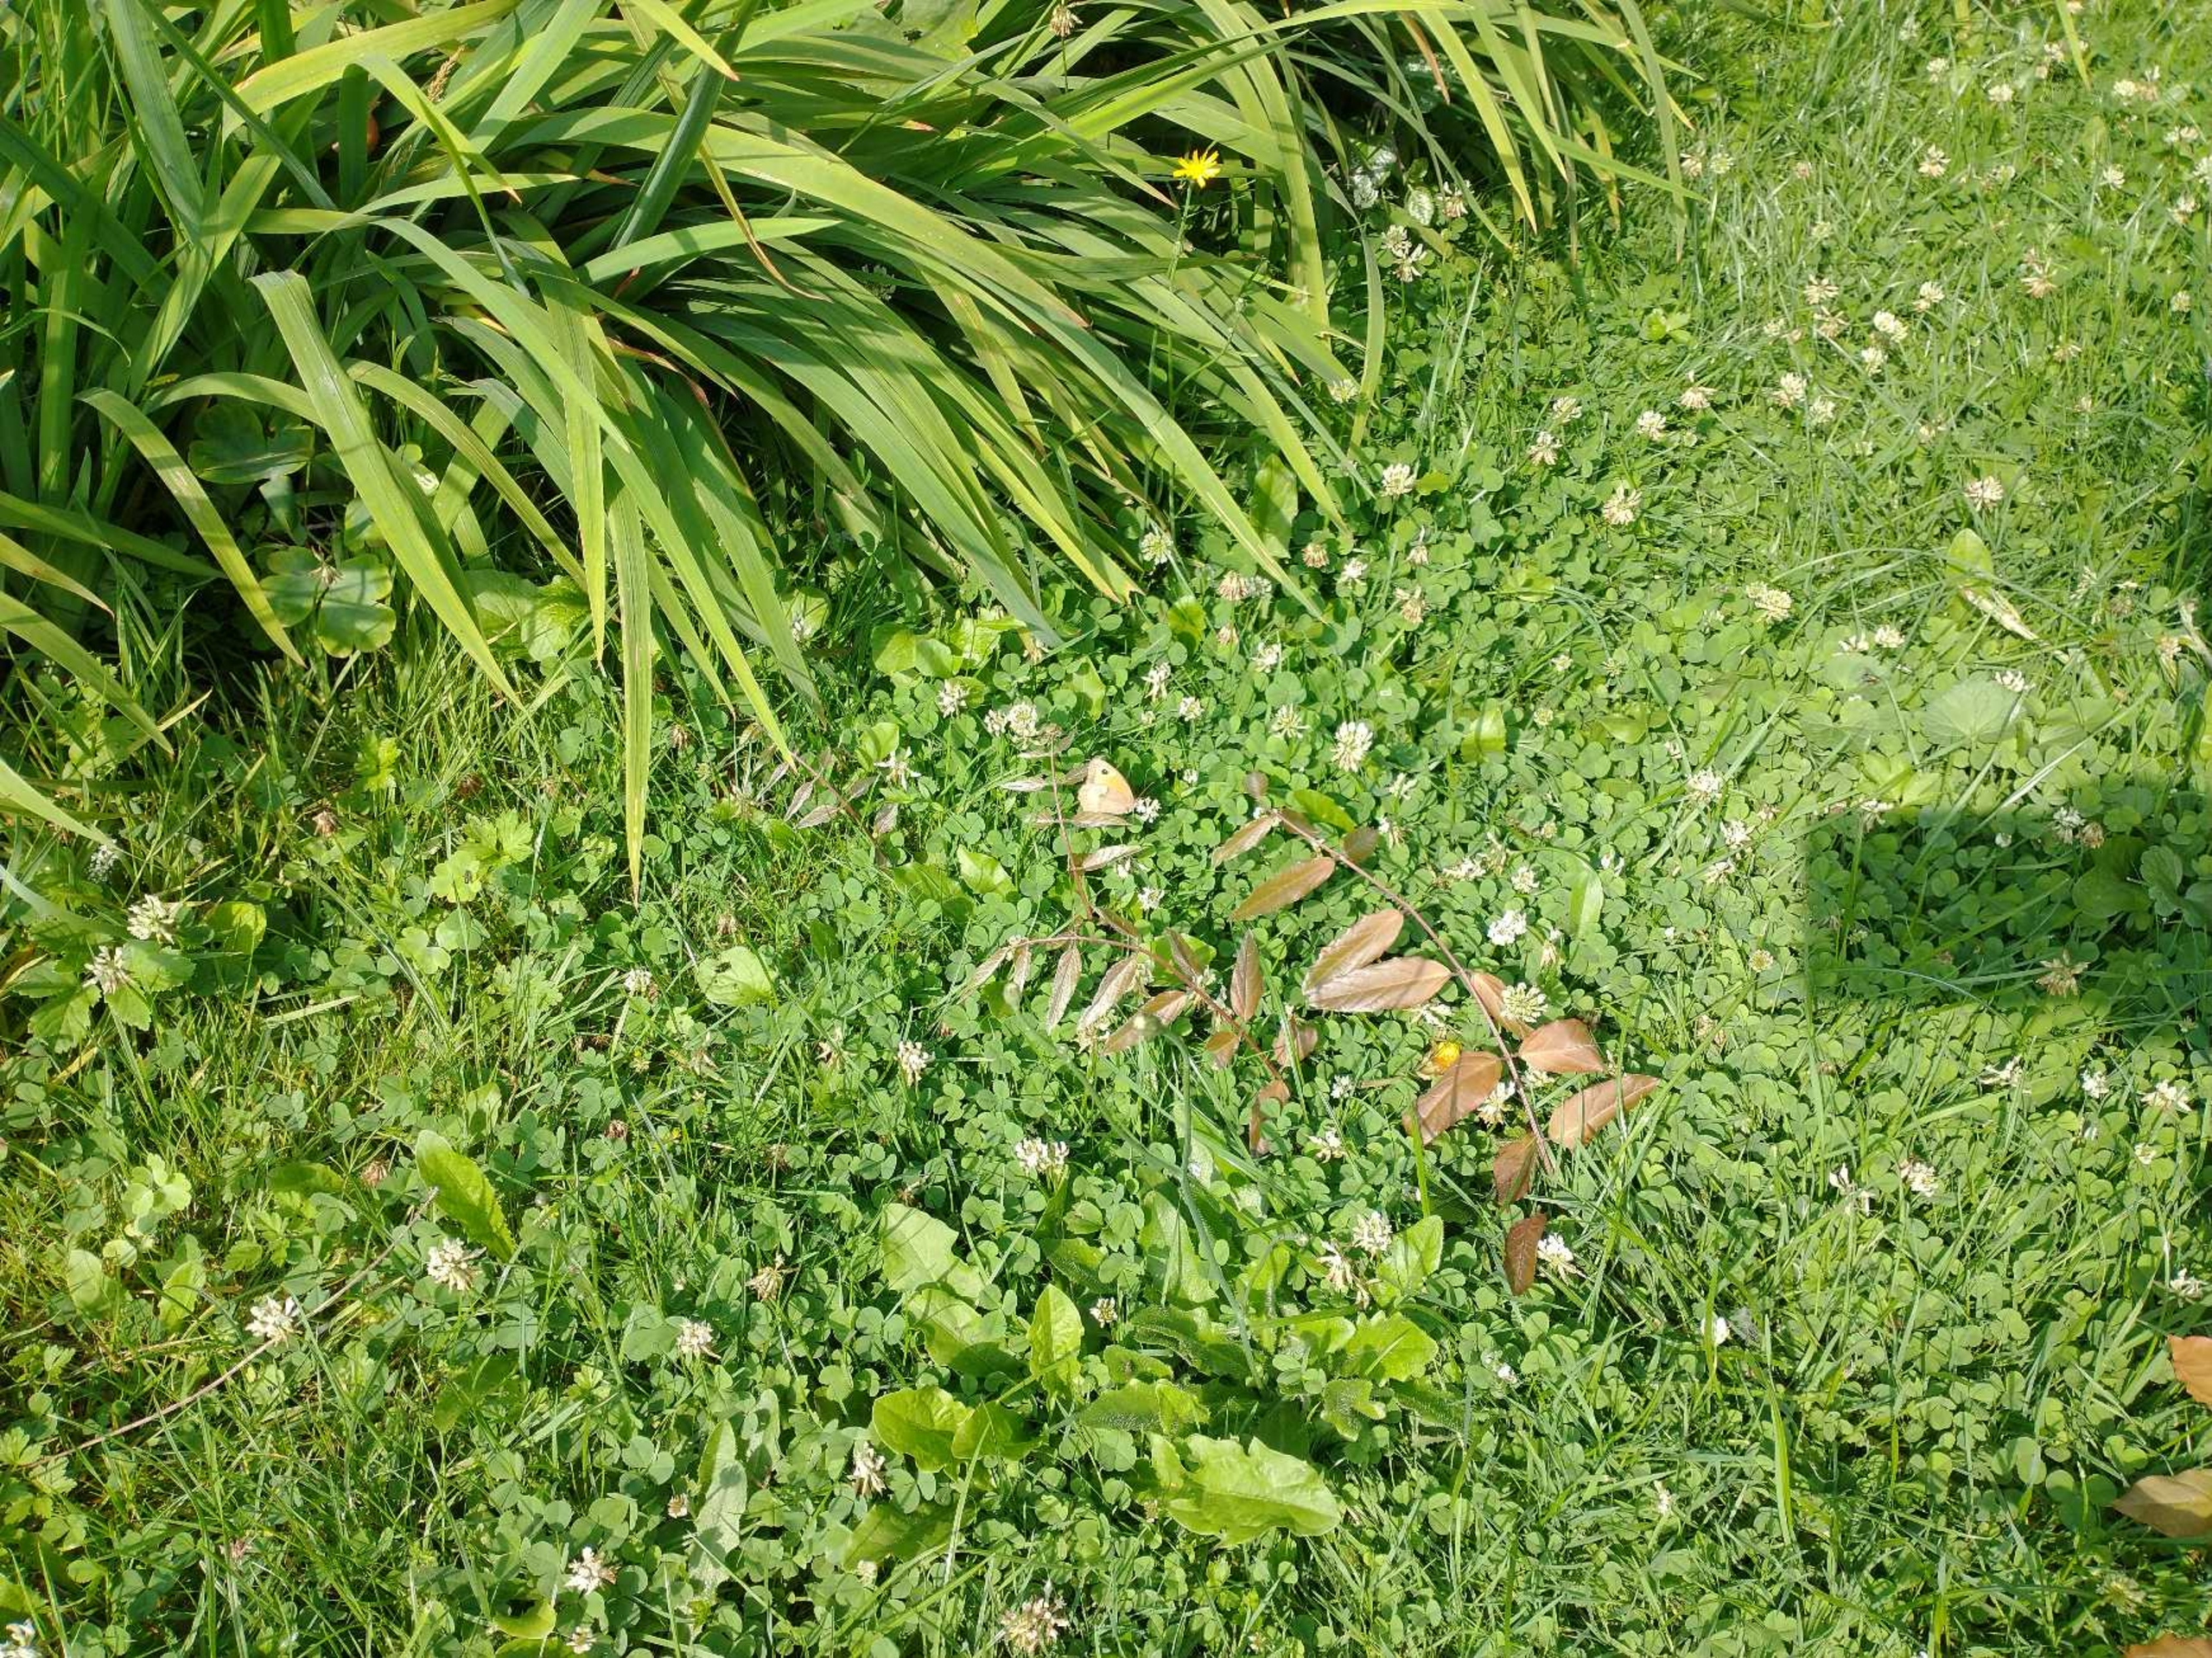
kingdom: Animalia
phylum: Arthropoda
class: Insecta
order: Lepidoptera
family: Nymphalidae
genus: Maniola
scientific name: Maniola jurtina
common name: Græsrandøje
